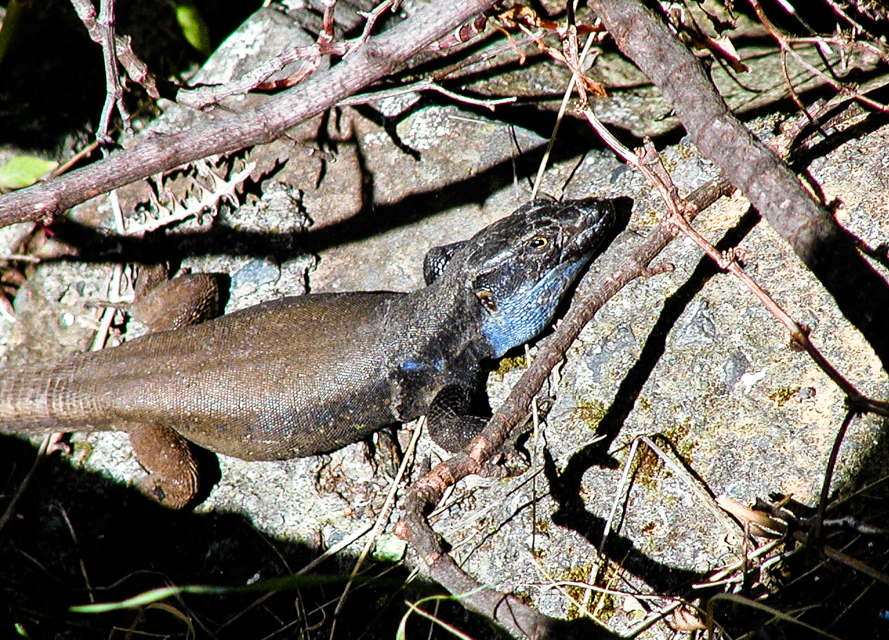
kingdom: Animalia
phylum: Chordata
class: Squamata
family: Lacertidae
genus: Gallotia
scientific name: Gallotia
